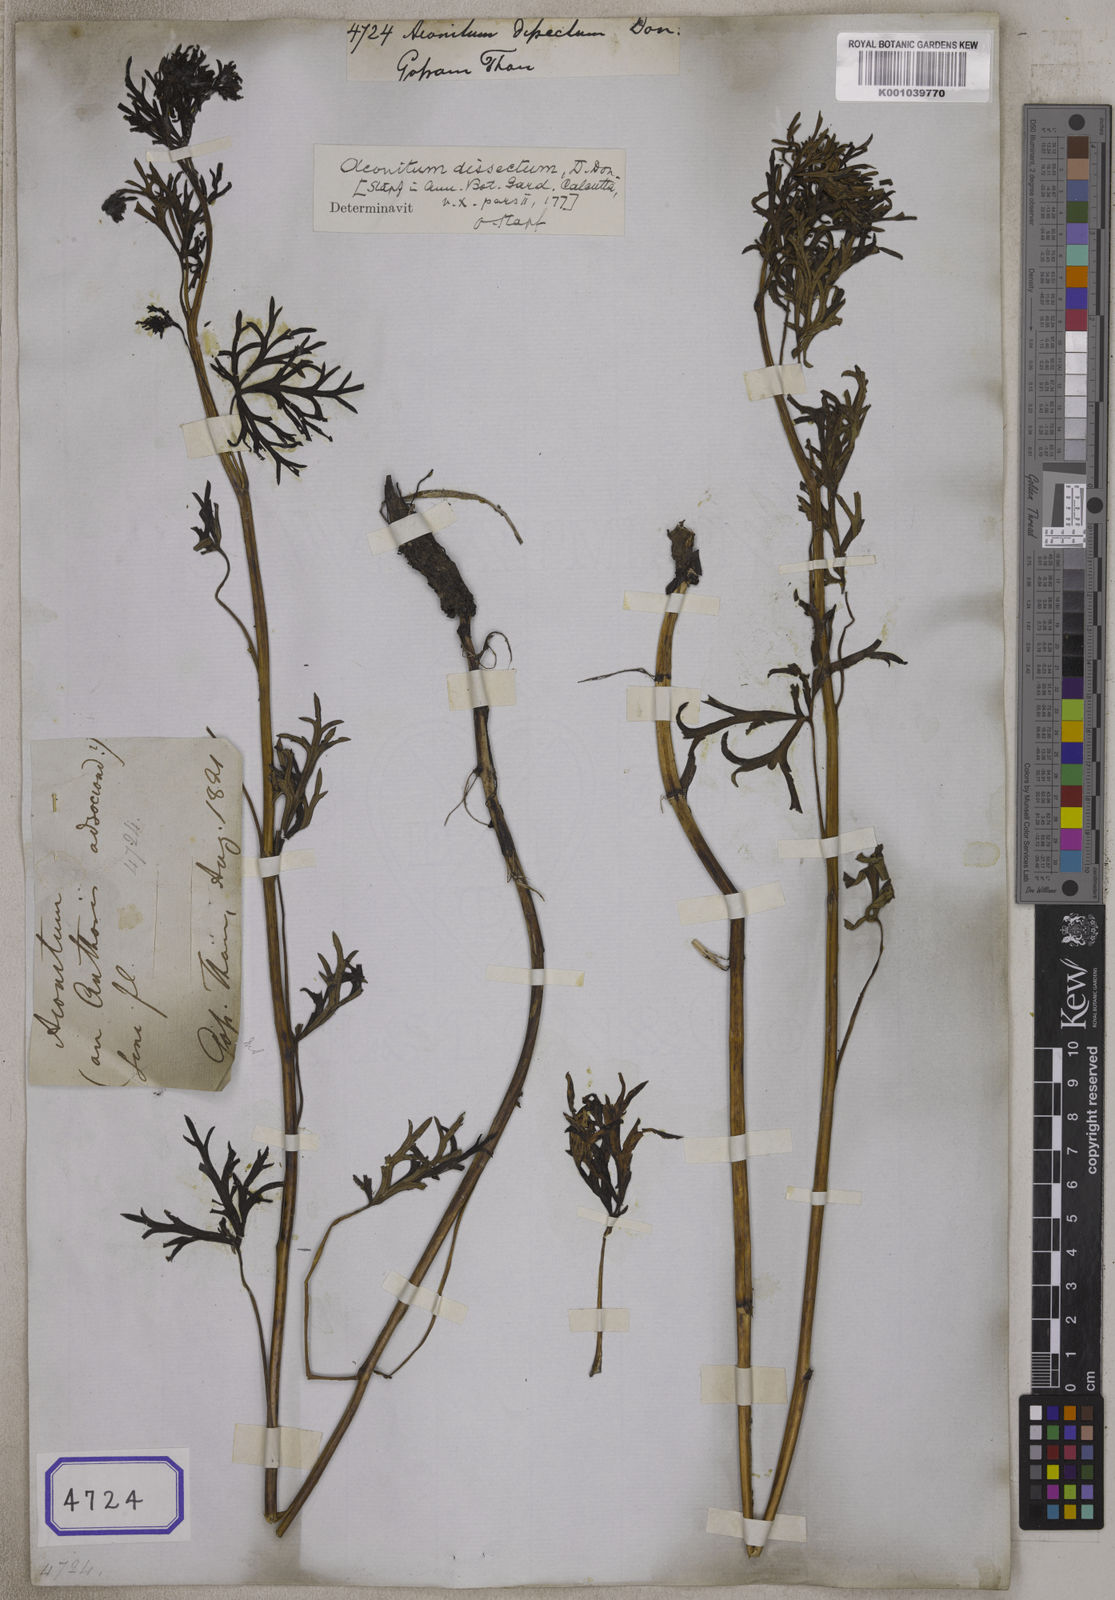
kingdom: Plantae
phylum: Tracheophyta
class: Magnoliopsida
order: Ranunculales
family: Ranunculaceae
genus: Aconitum
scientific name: Aconitum gammiei
